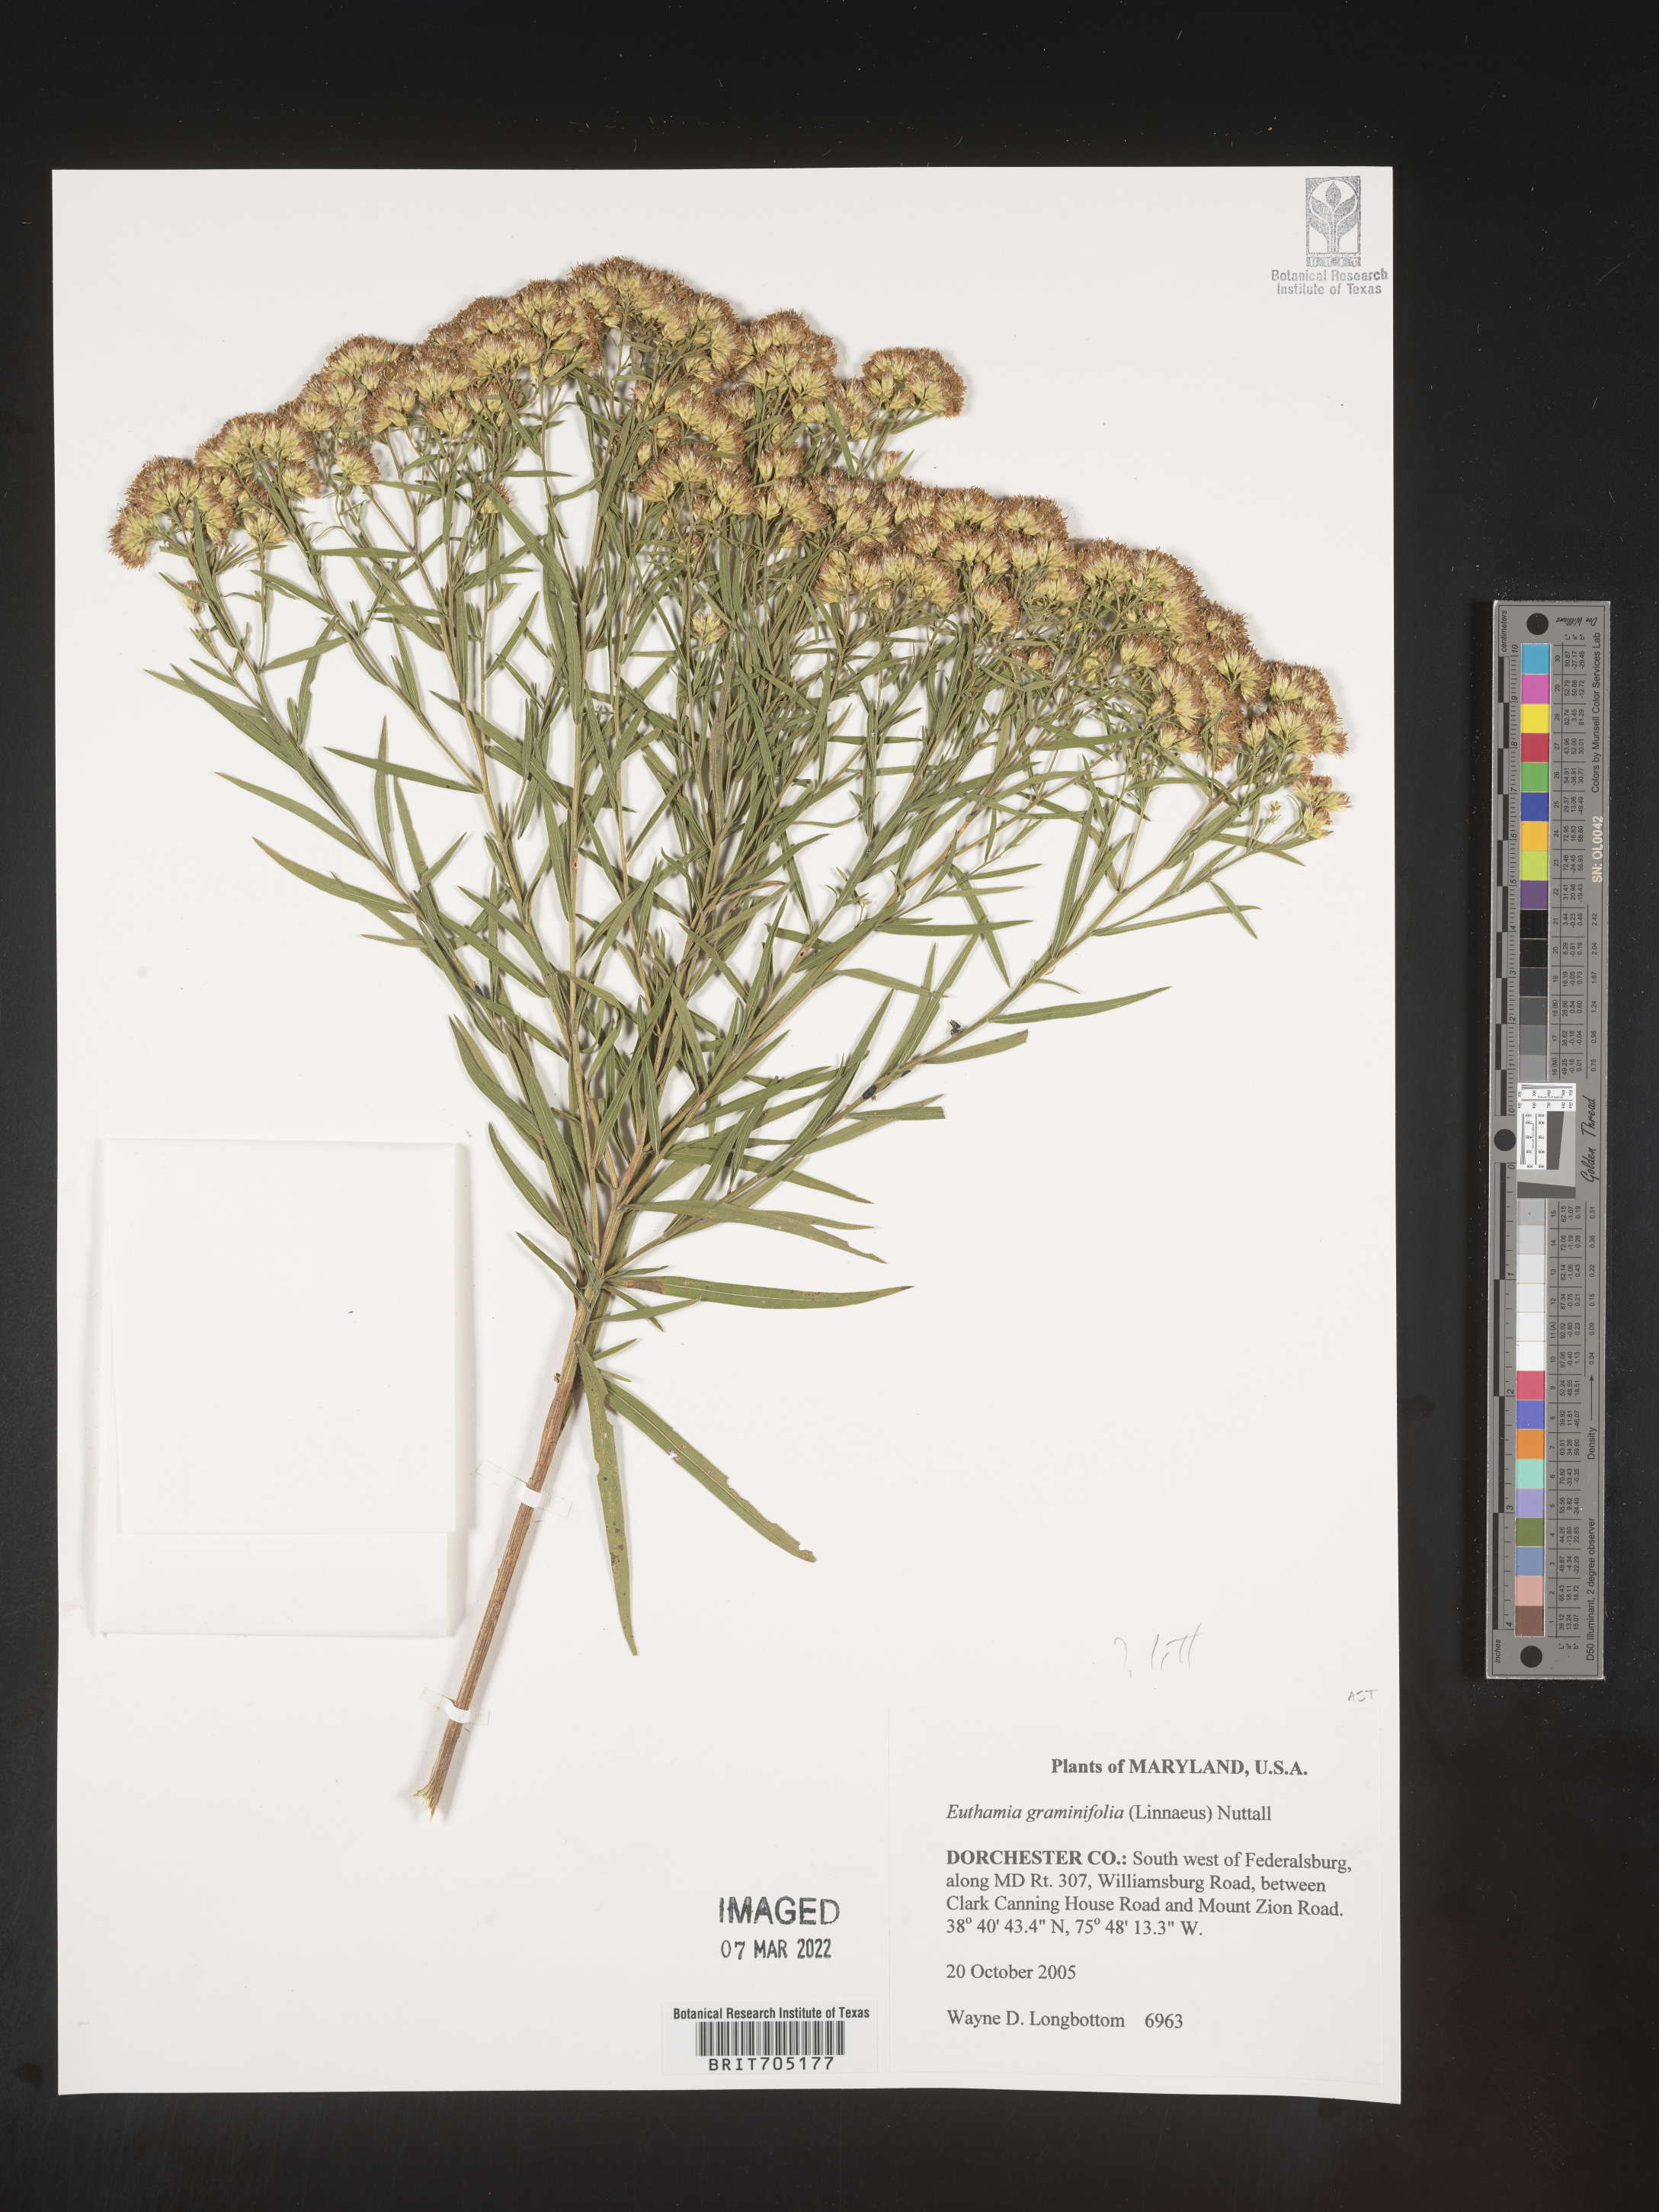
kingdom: Plantae
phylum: Tracheophyta
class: Magnoliopsida
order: Asterales
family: Asteraceae
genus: Euthamia
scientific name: Euthamia
